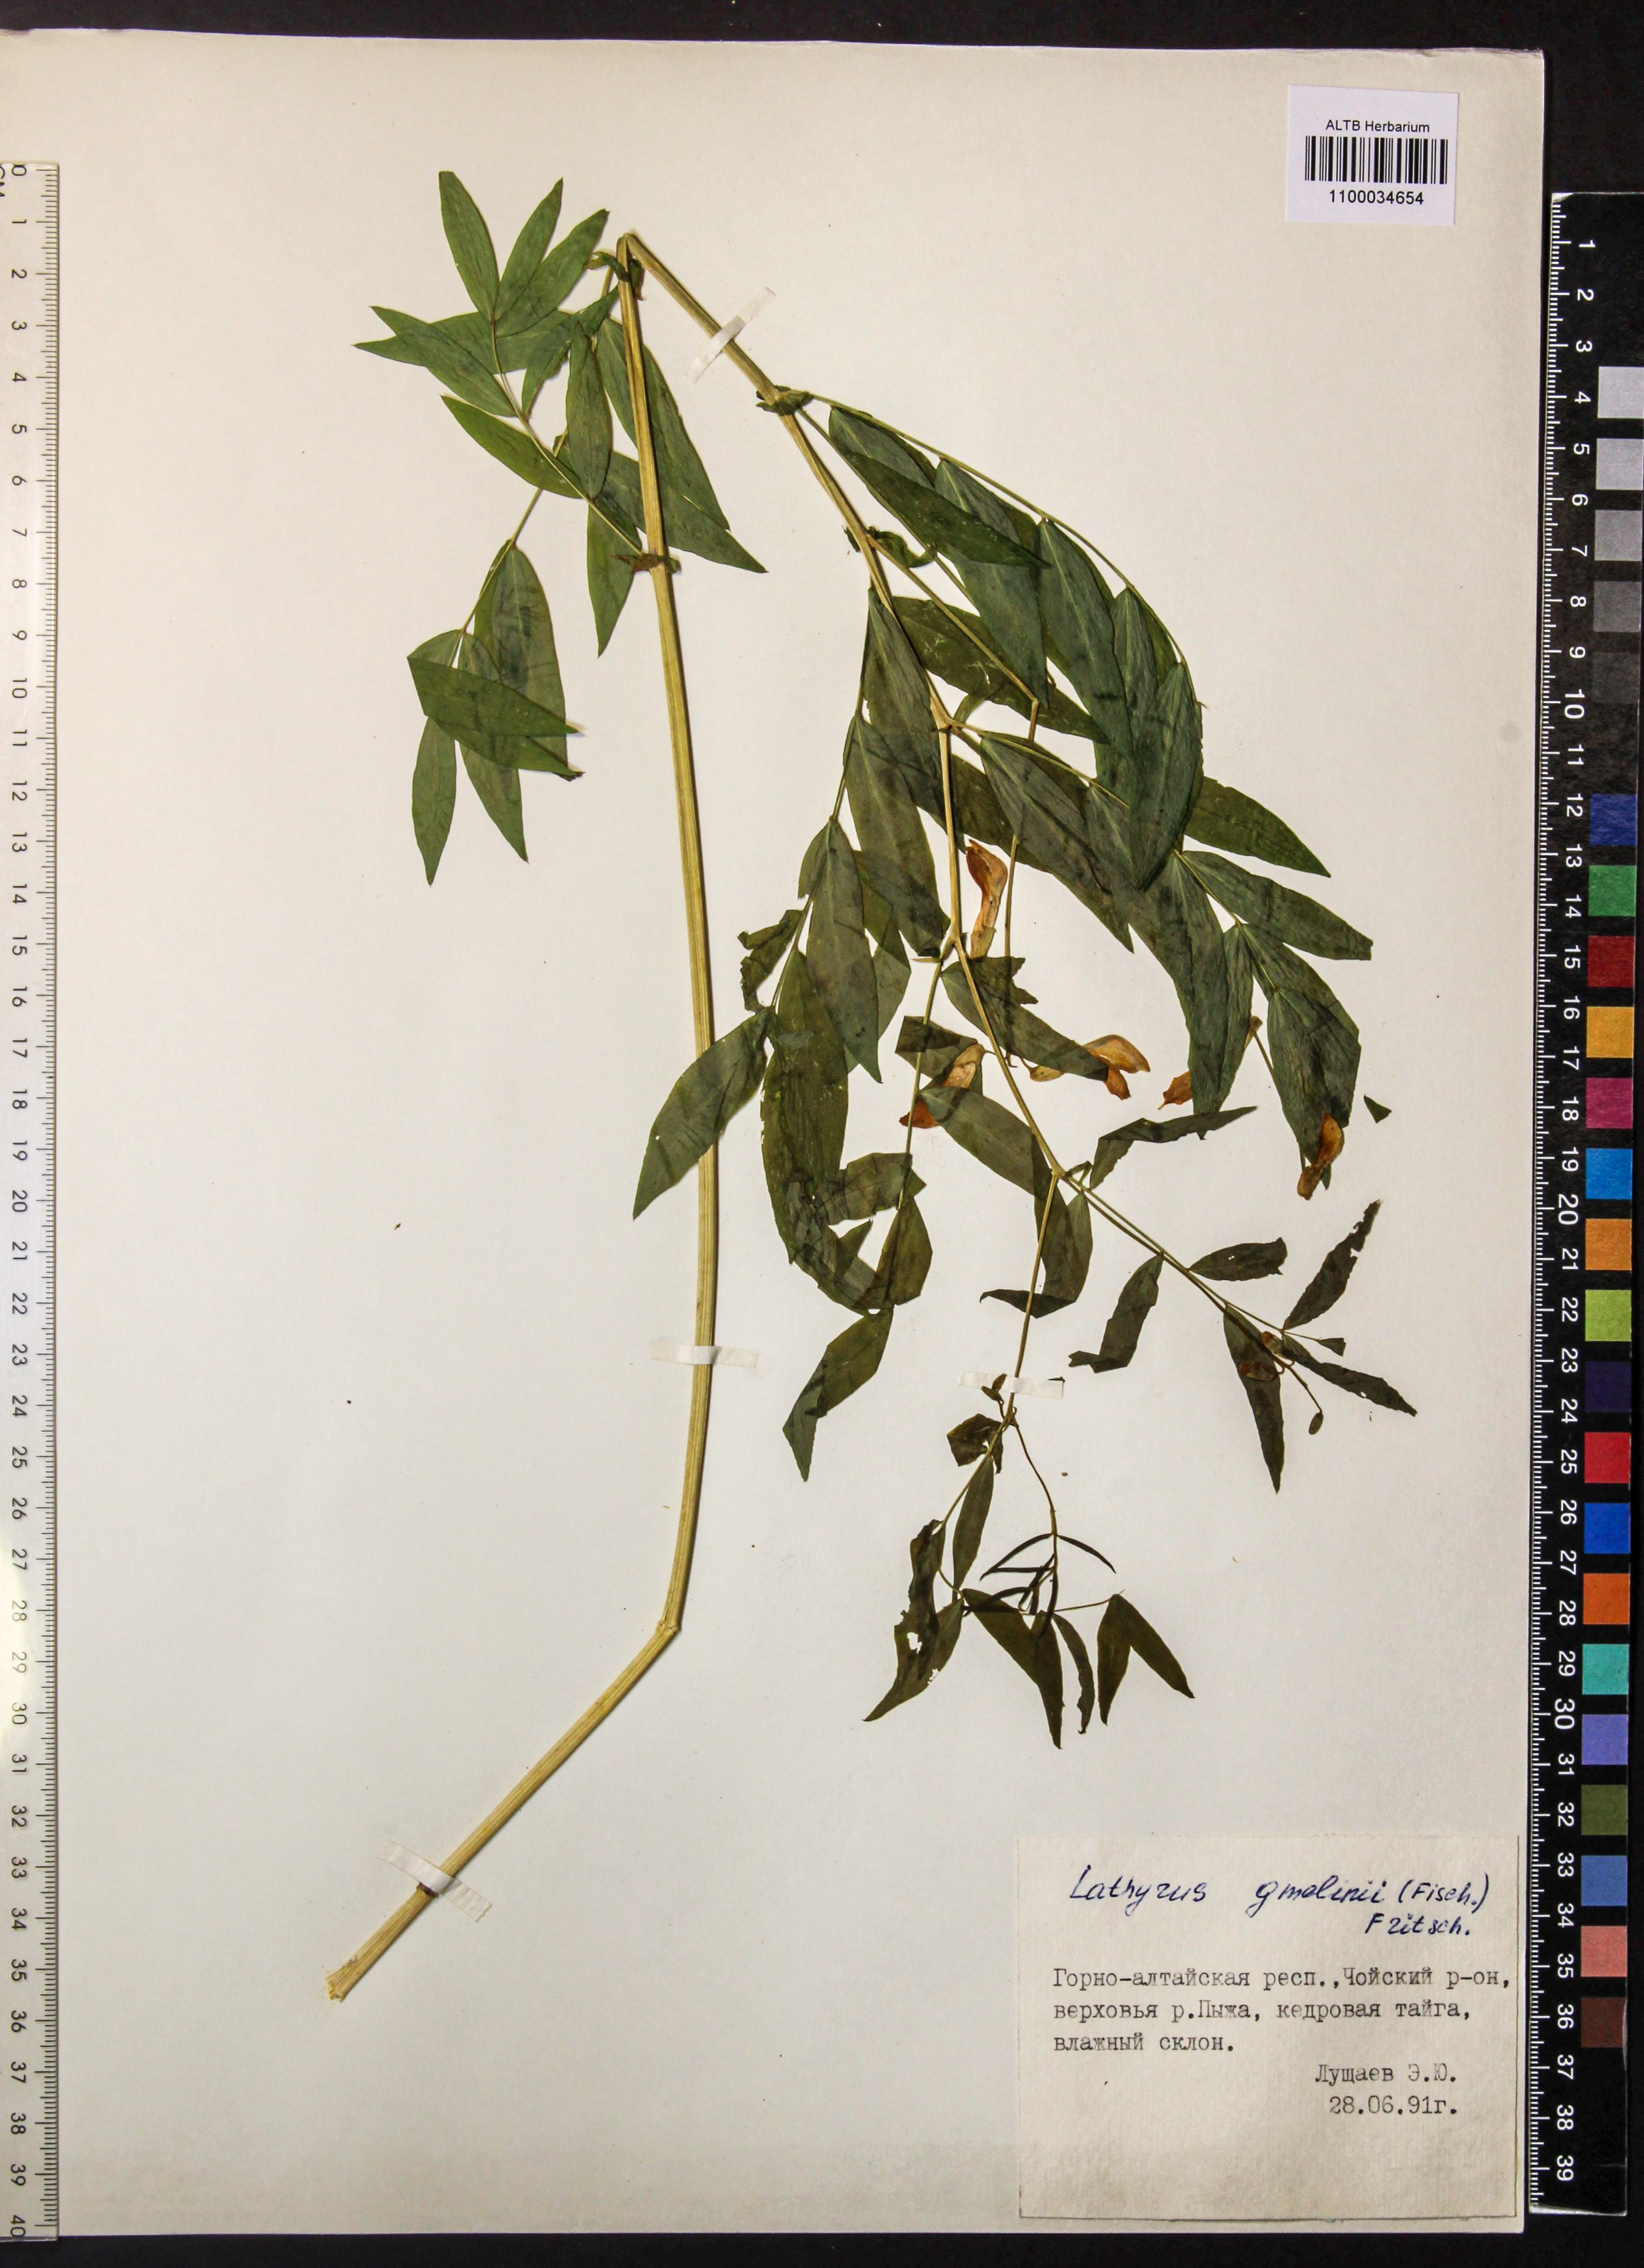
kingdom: Plantae
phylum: Tracheophyta
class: Magnoliopsida
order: Fabales
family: Fabaceae
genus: Lathyrus
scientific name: Lathyrus gmelinii
